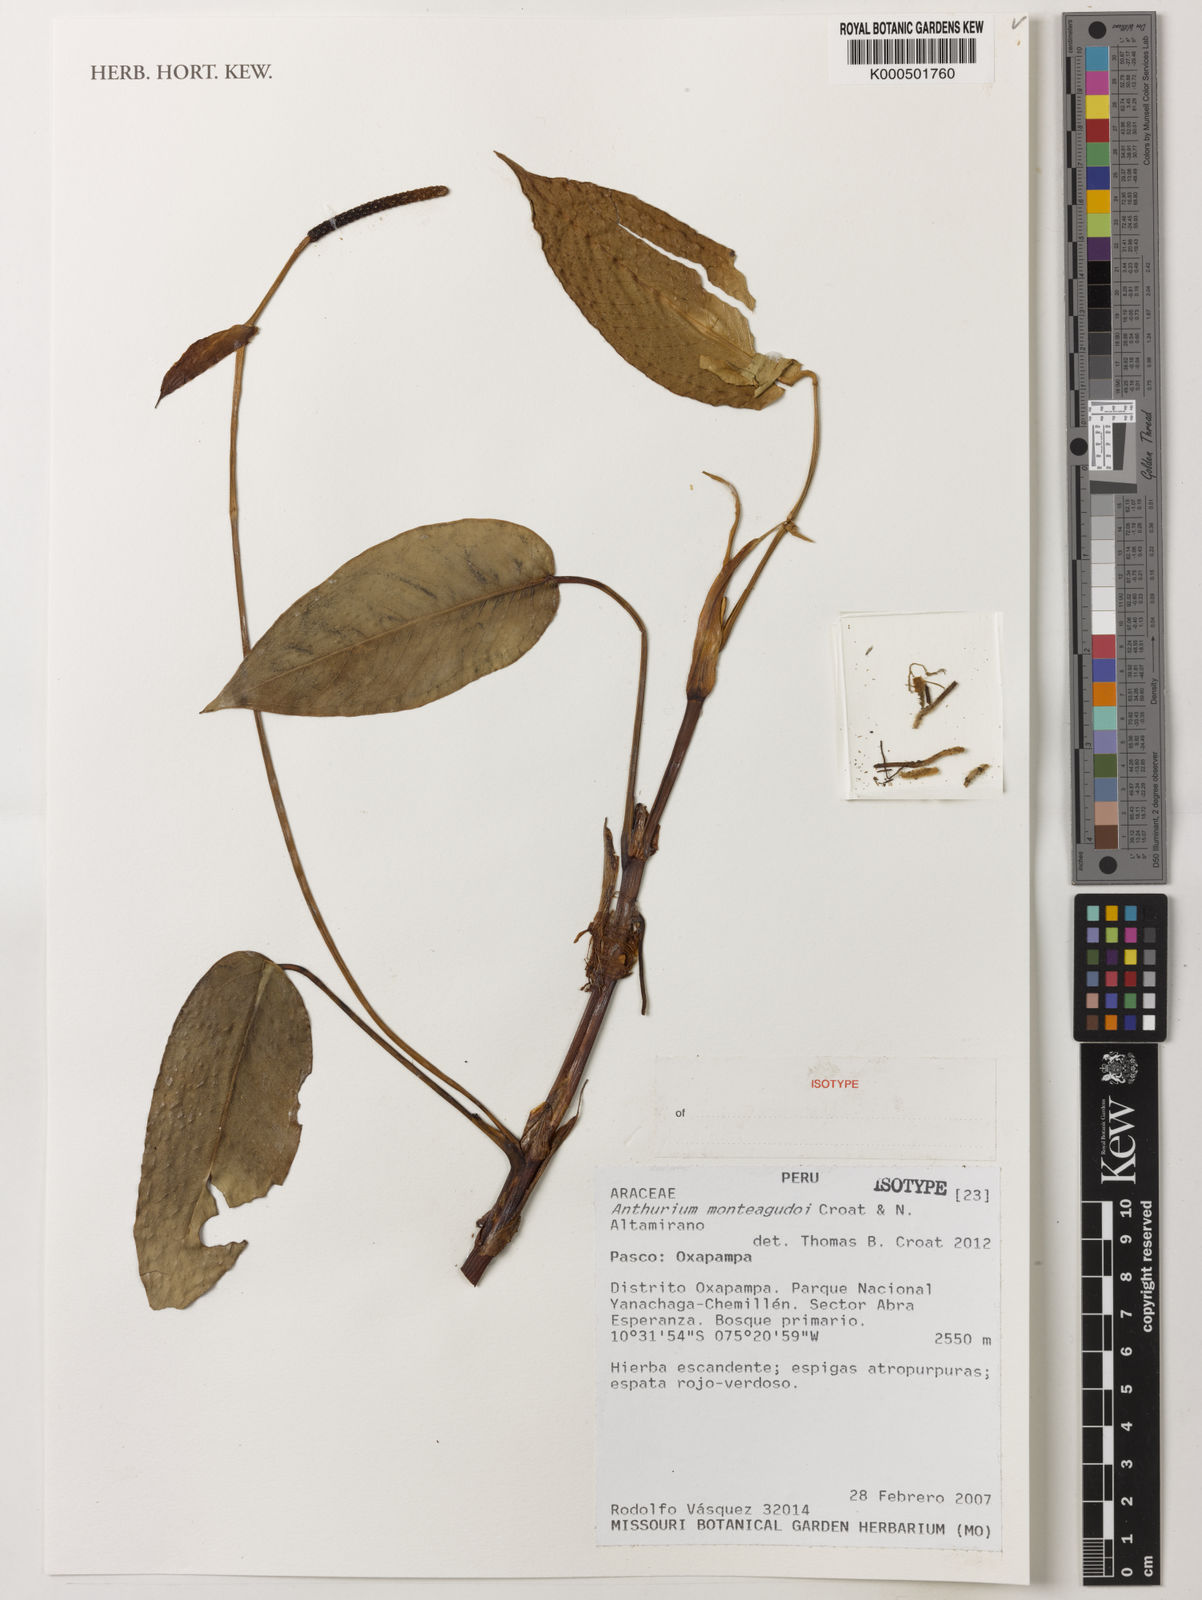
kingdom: Plantae
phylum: Tracheophyta
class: Liliopsida
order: Alismatales
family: Araceae
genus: Anthurium
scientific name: Anthurium monteagudoi
